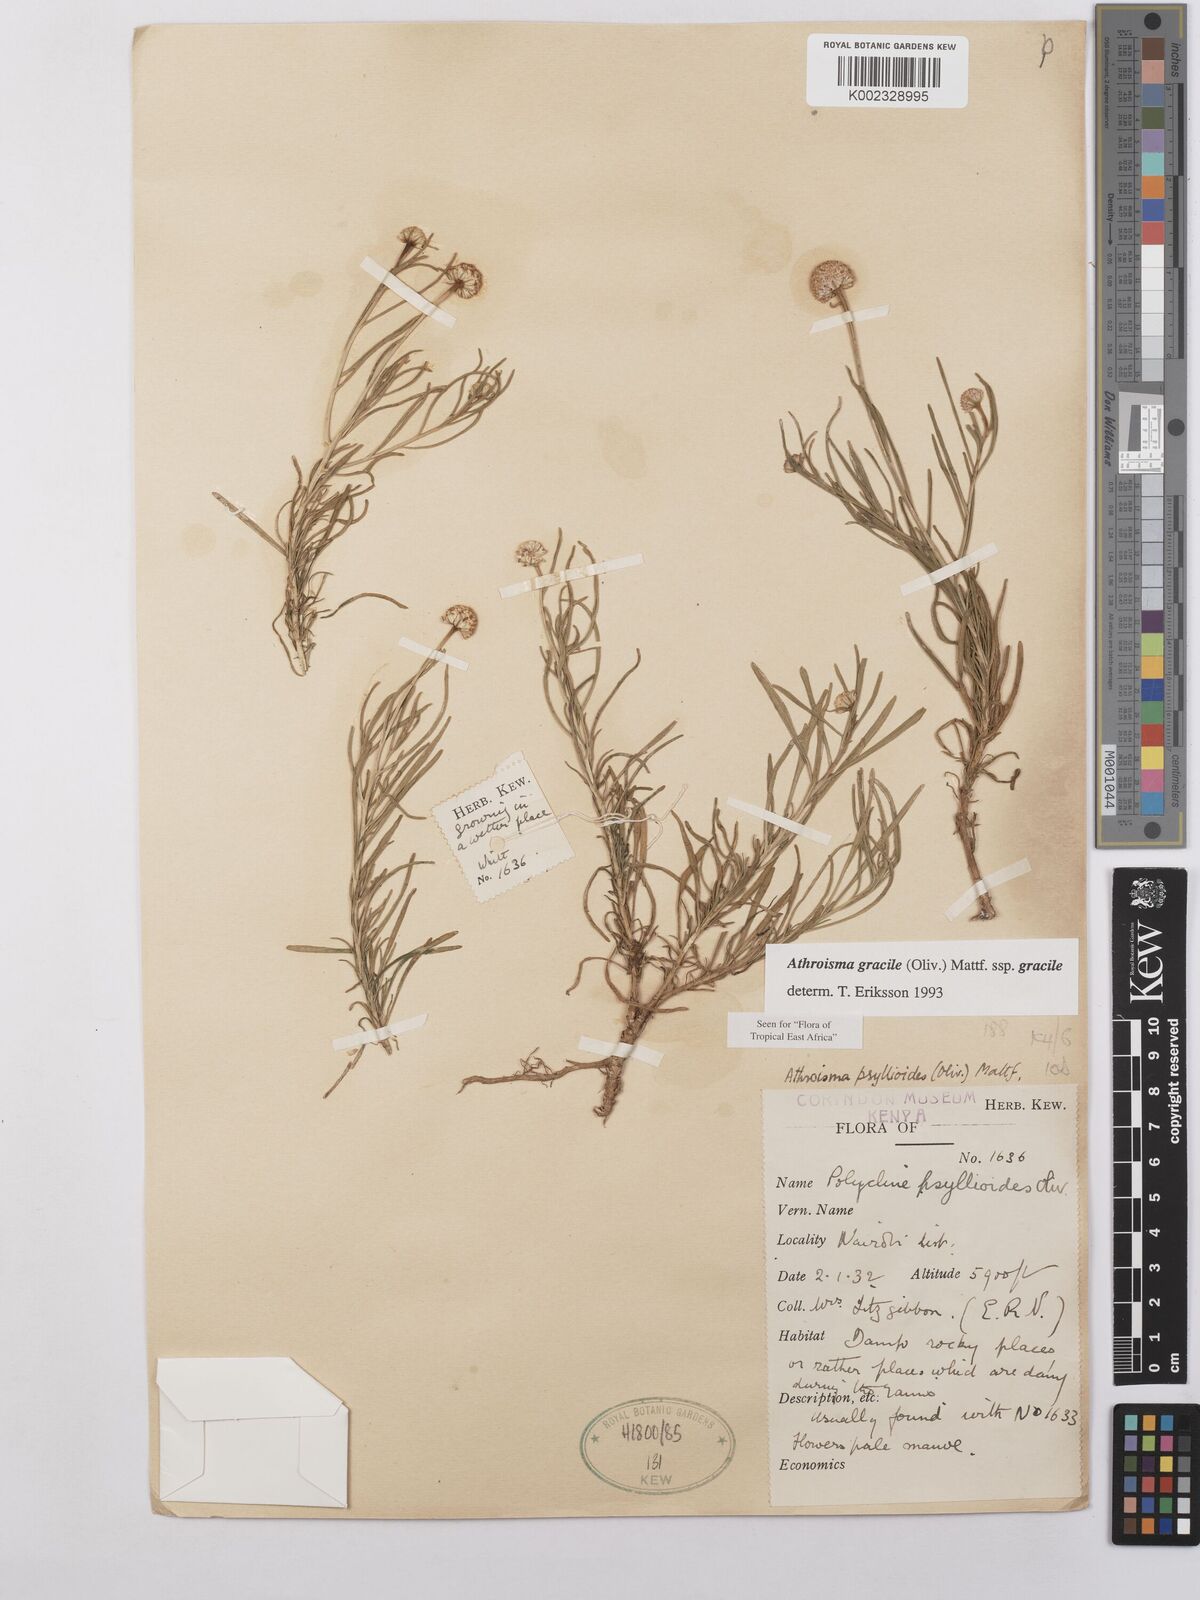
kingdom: Plantae
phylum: Tracheophyta
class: Magnoliopsida
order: Asterales
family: Asteraceae
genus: Athroisma
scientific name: Athroisma gracile
